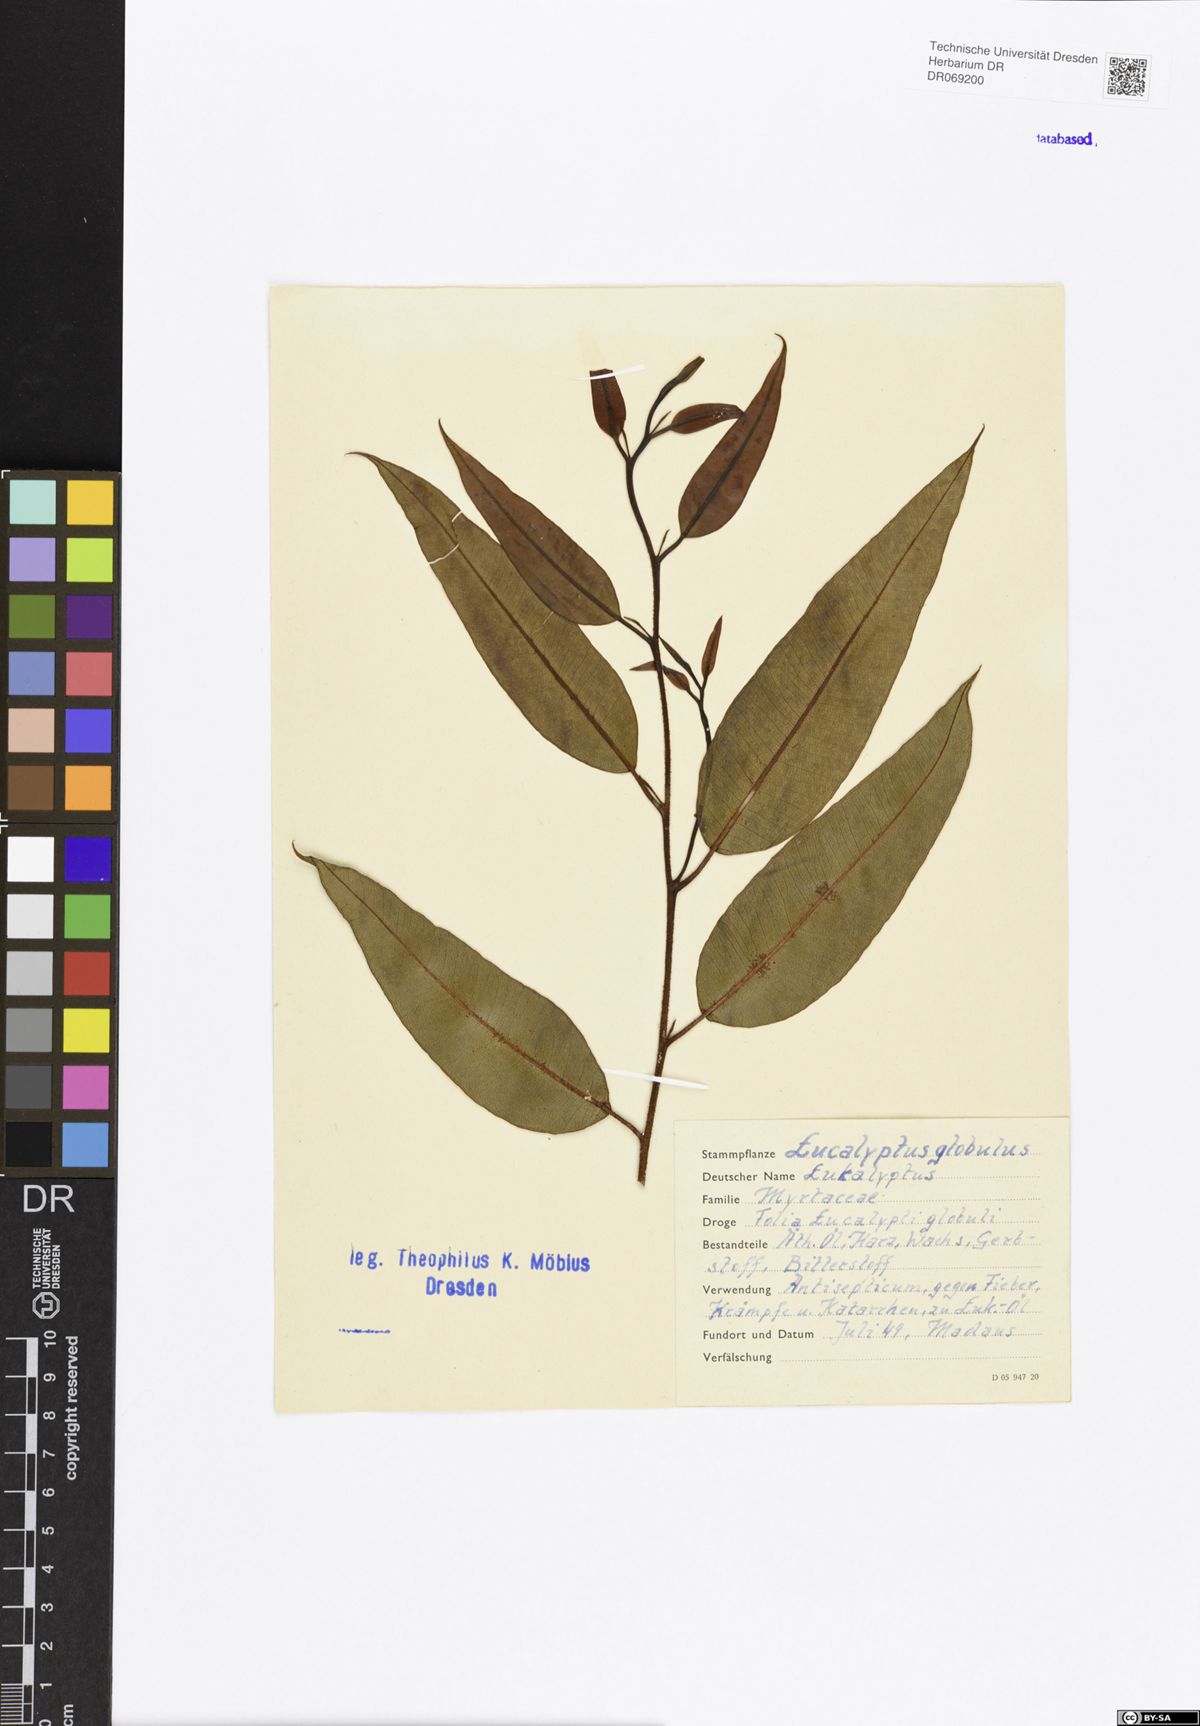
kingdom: Plantae
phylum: Tracheophyta
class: Magnoliopsida
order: Myrtales
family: Myrtaceae
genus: Eucalyptus
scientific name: Eucalyptus globulus
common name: Southern blue-gum
